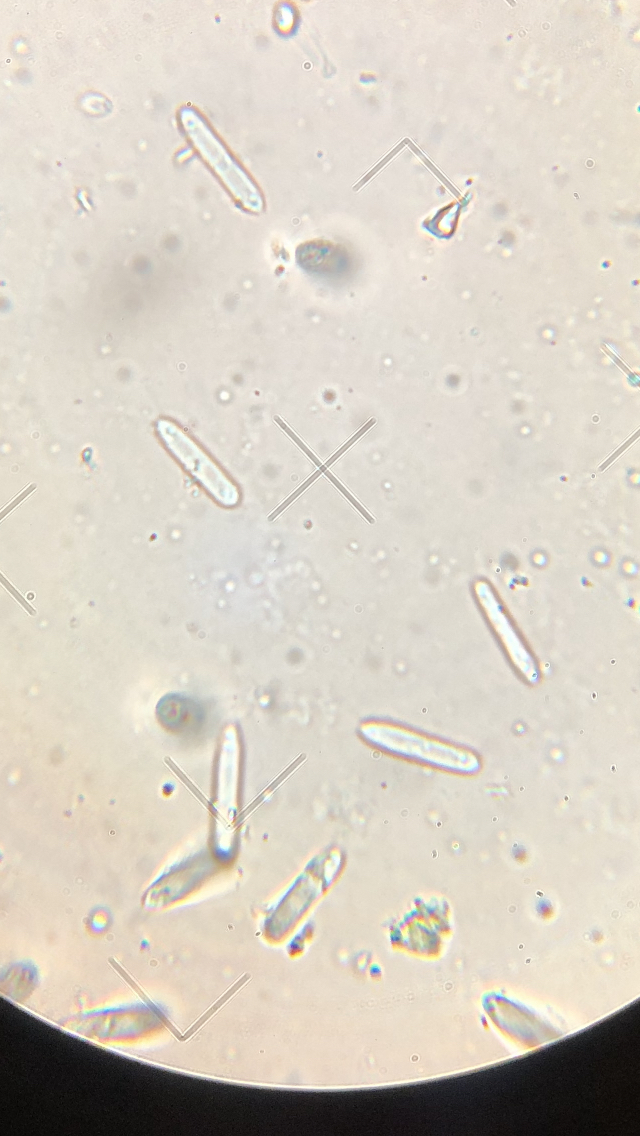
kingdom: Fungi
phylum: Ascomycota
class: Leotiomycetes
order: Phacidiales
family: Phacidiaceae
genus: Phacidium
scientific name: Phacidium lauri
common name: kristtorn-tandskive
